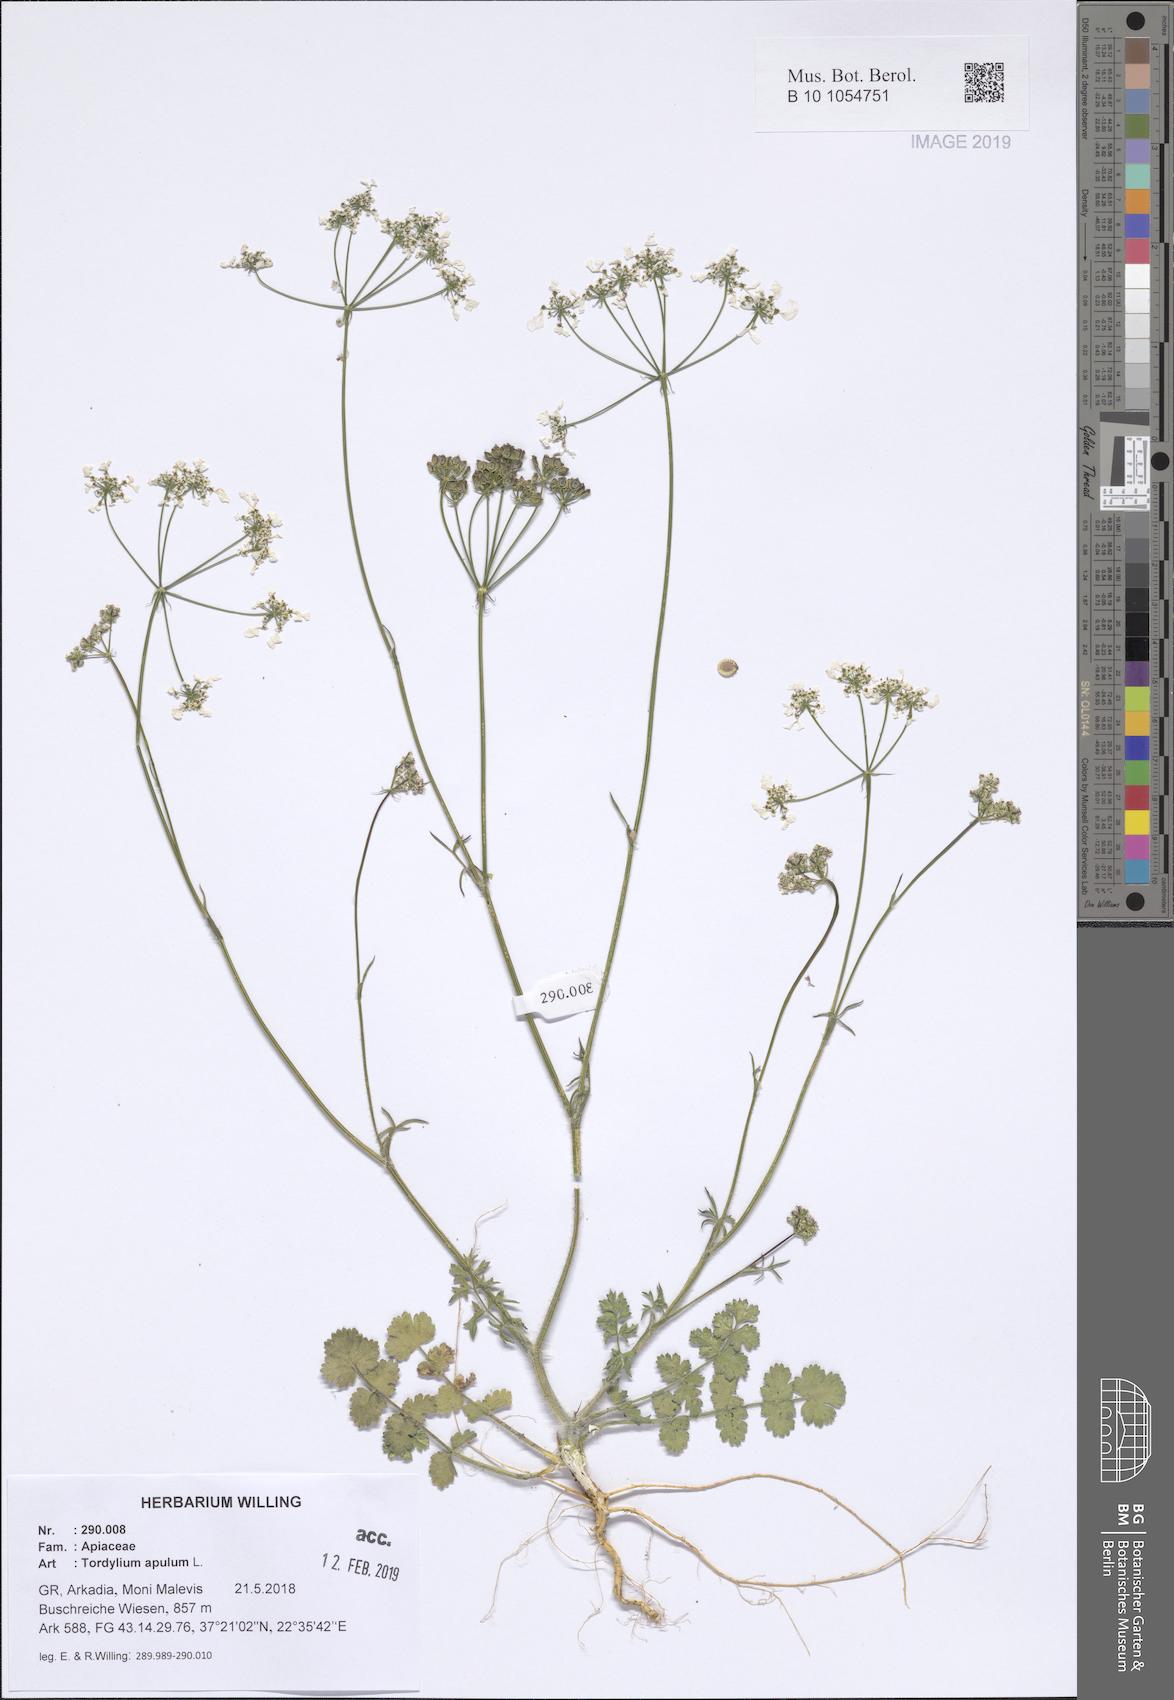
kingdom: Plantae
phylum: Tracheophyta
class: Magnoliopsida
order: Apiales
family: Apiaceae
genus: Tordylium
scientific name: Tordylium apulum
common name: Mediterranean hartwort
